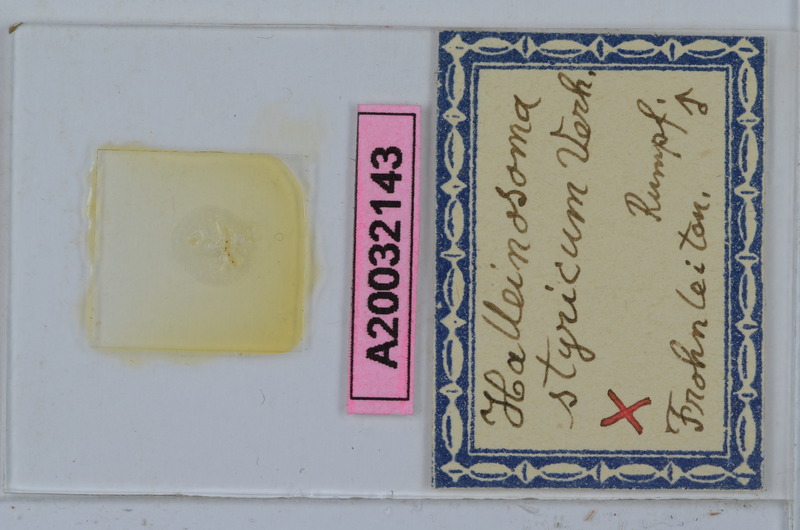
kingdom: Animalia
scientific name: Animalia
